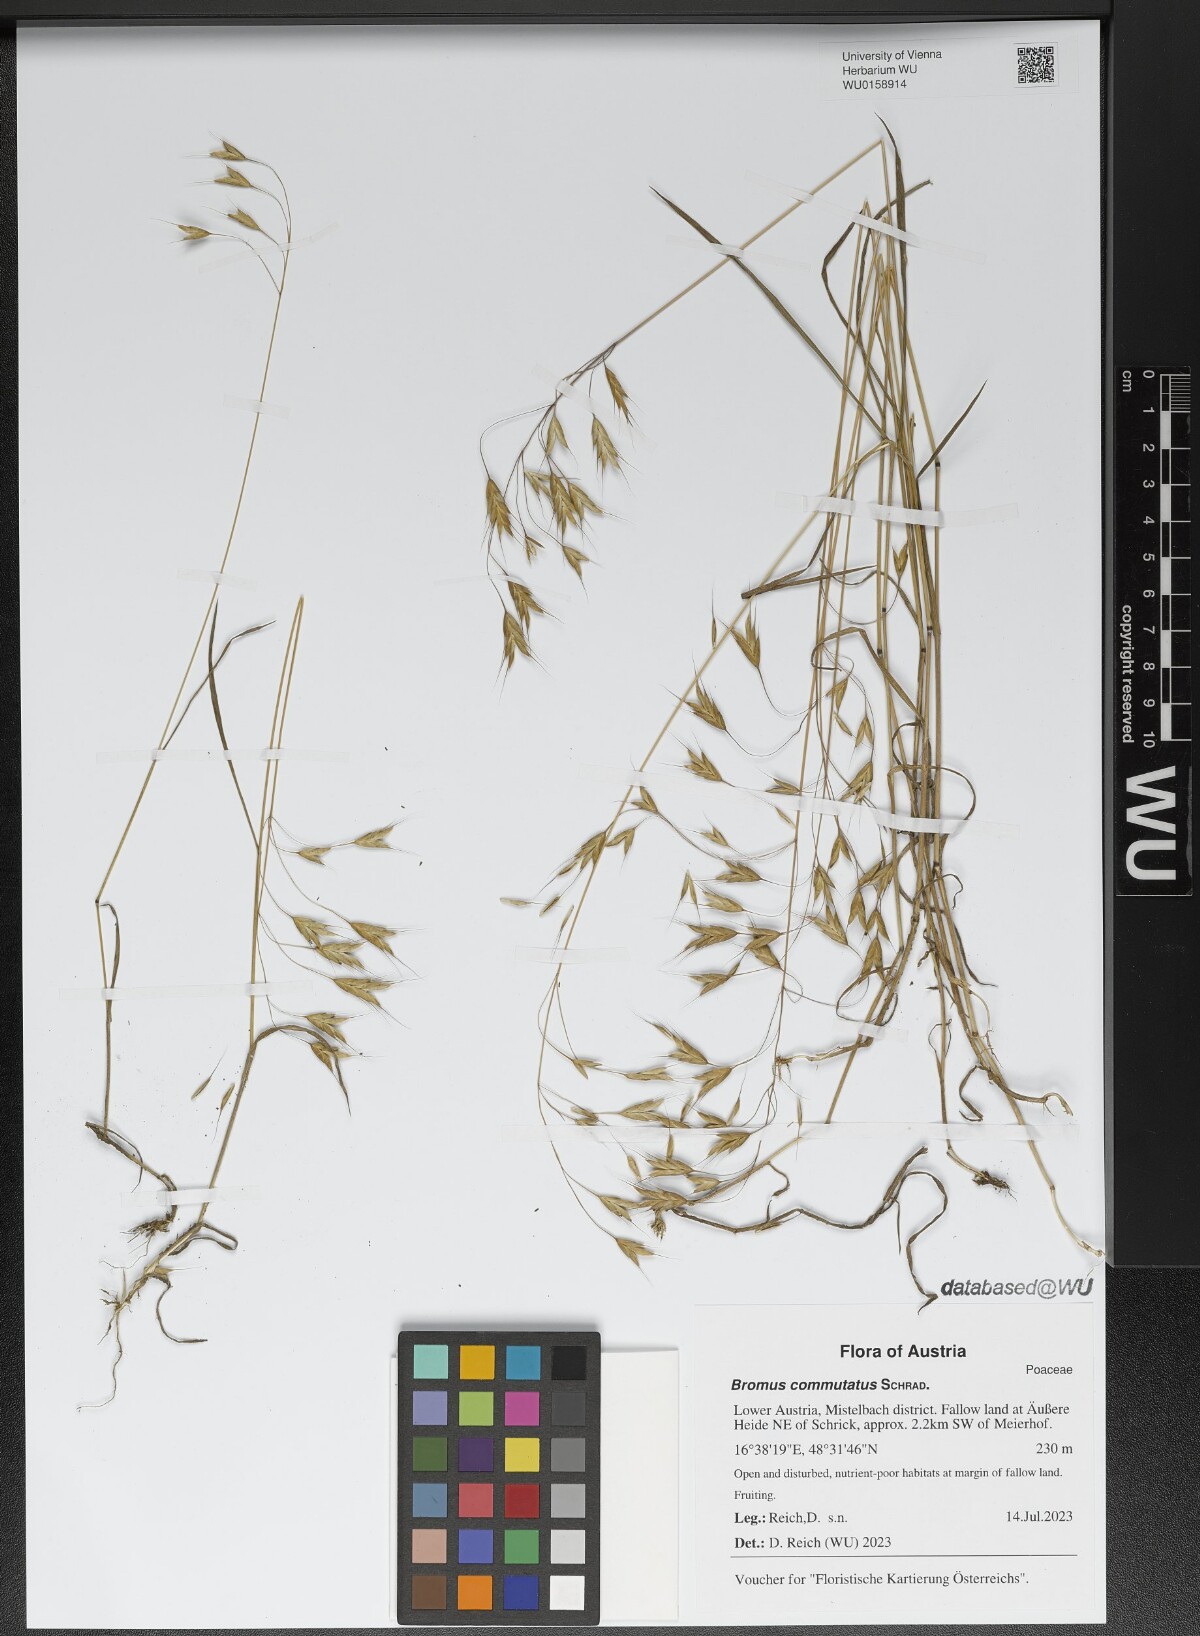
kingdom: Plantae
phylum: Tracheophyta
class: Liliopsida
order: Poales
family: Poaceae
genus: Bromus
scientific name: Bromus commutatus
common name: Meadow brome
